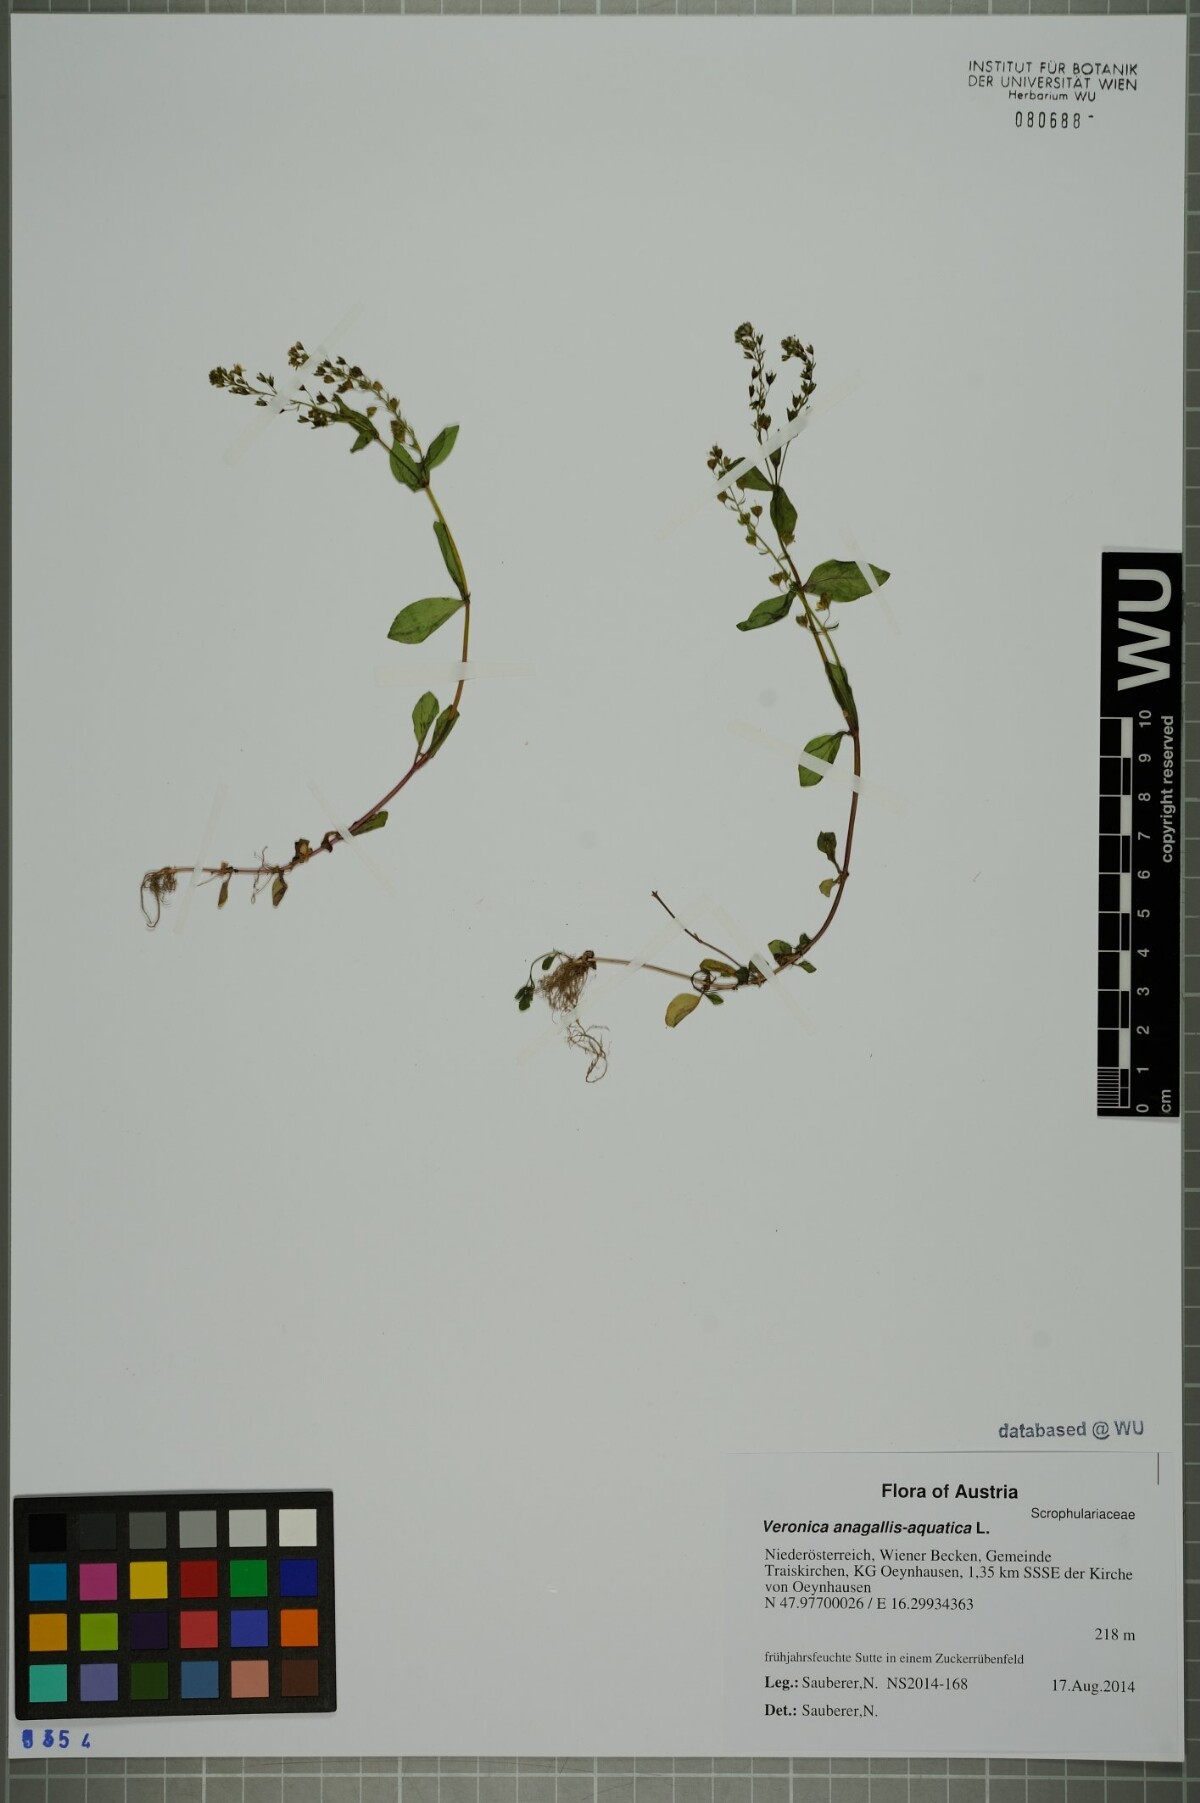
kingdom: Plantae
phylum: Tracheophyta
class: Magnoliopsida
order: Lamiales
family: Plantaginaceae
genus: Veronica
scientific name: Veronica anagallis-aquatica
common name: Water speedwell
